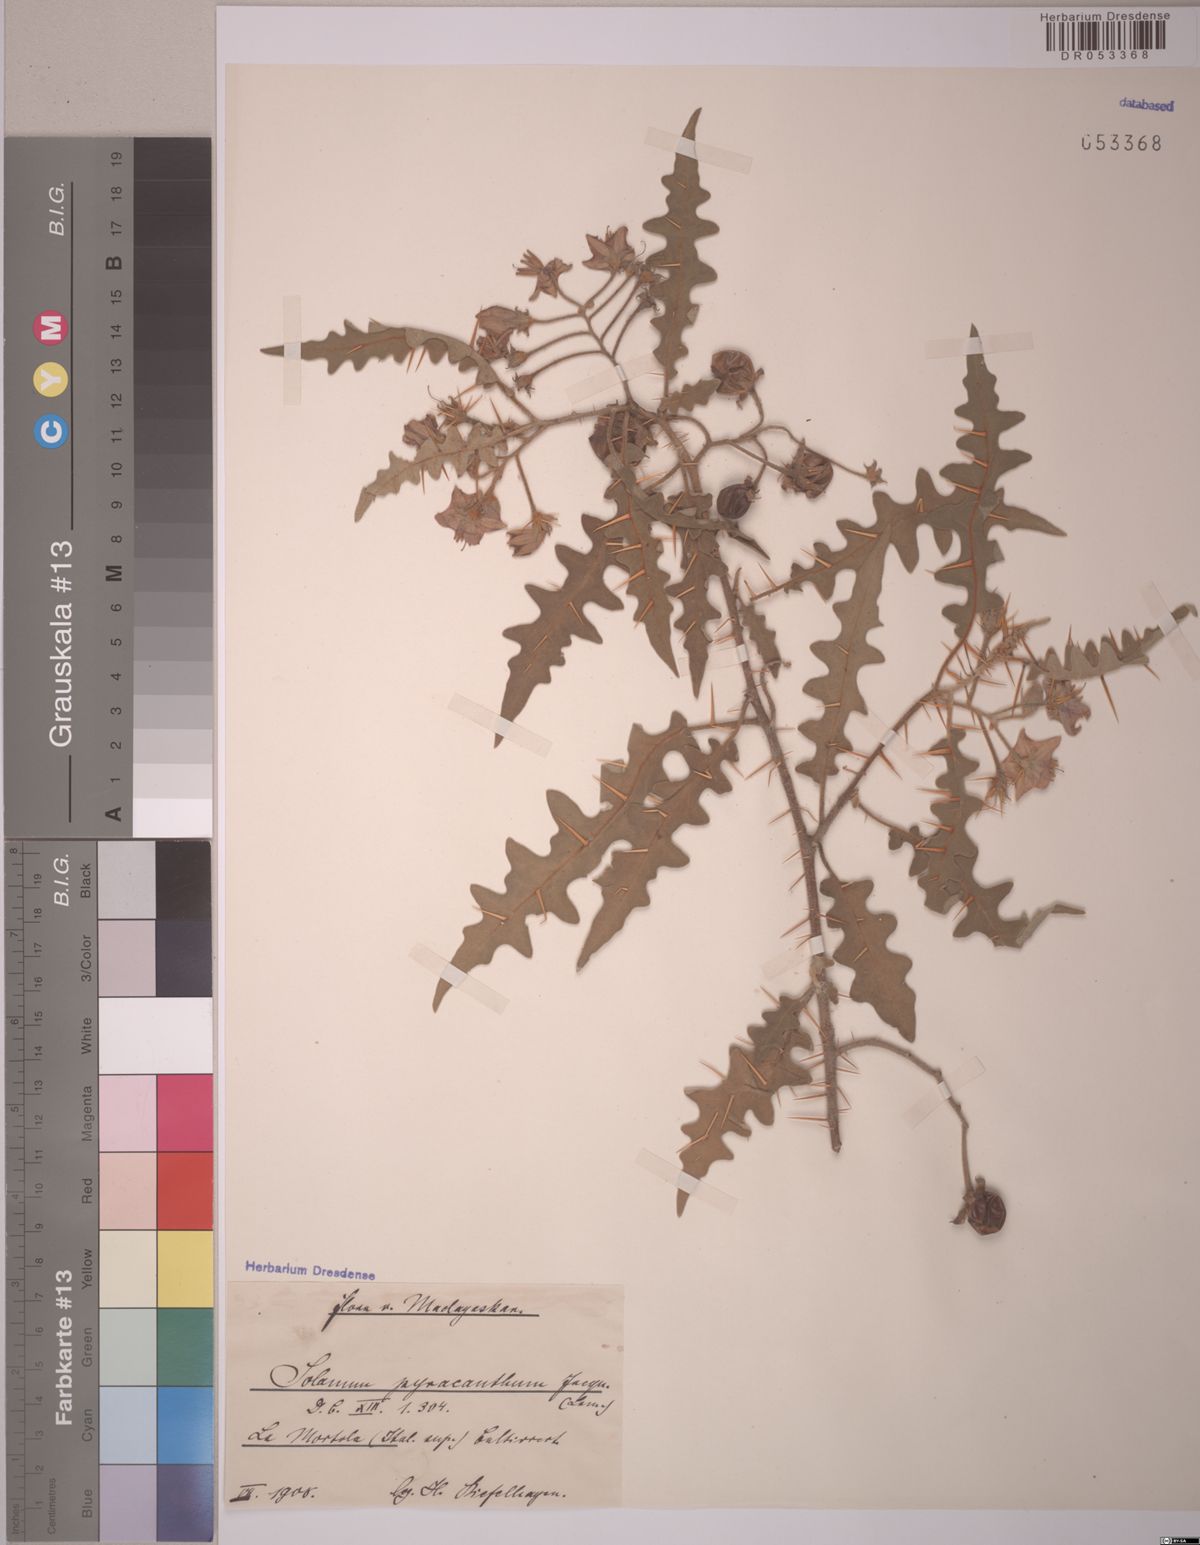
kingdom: Plantae
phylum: Tracheophyta
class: Magnoliopsida
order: Solanales
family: Solanaceae
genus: Solanum
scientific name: Solanum pyracanthum
